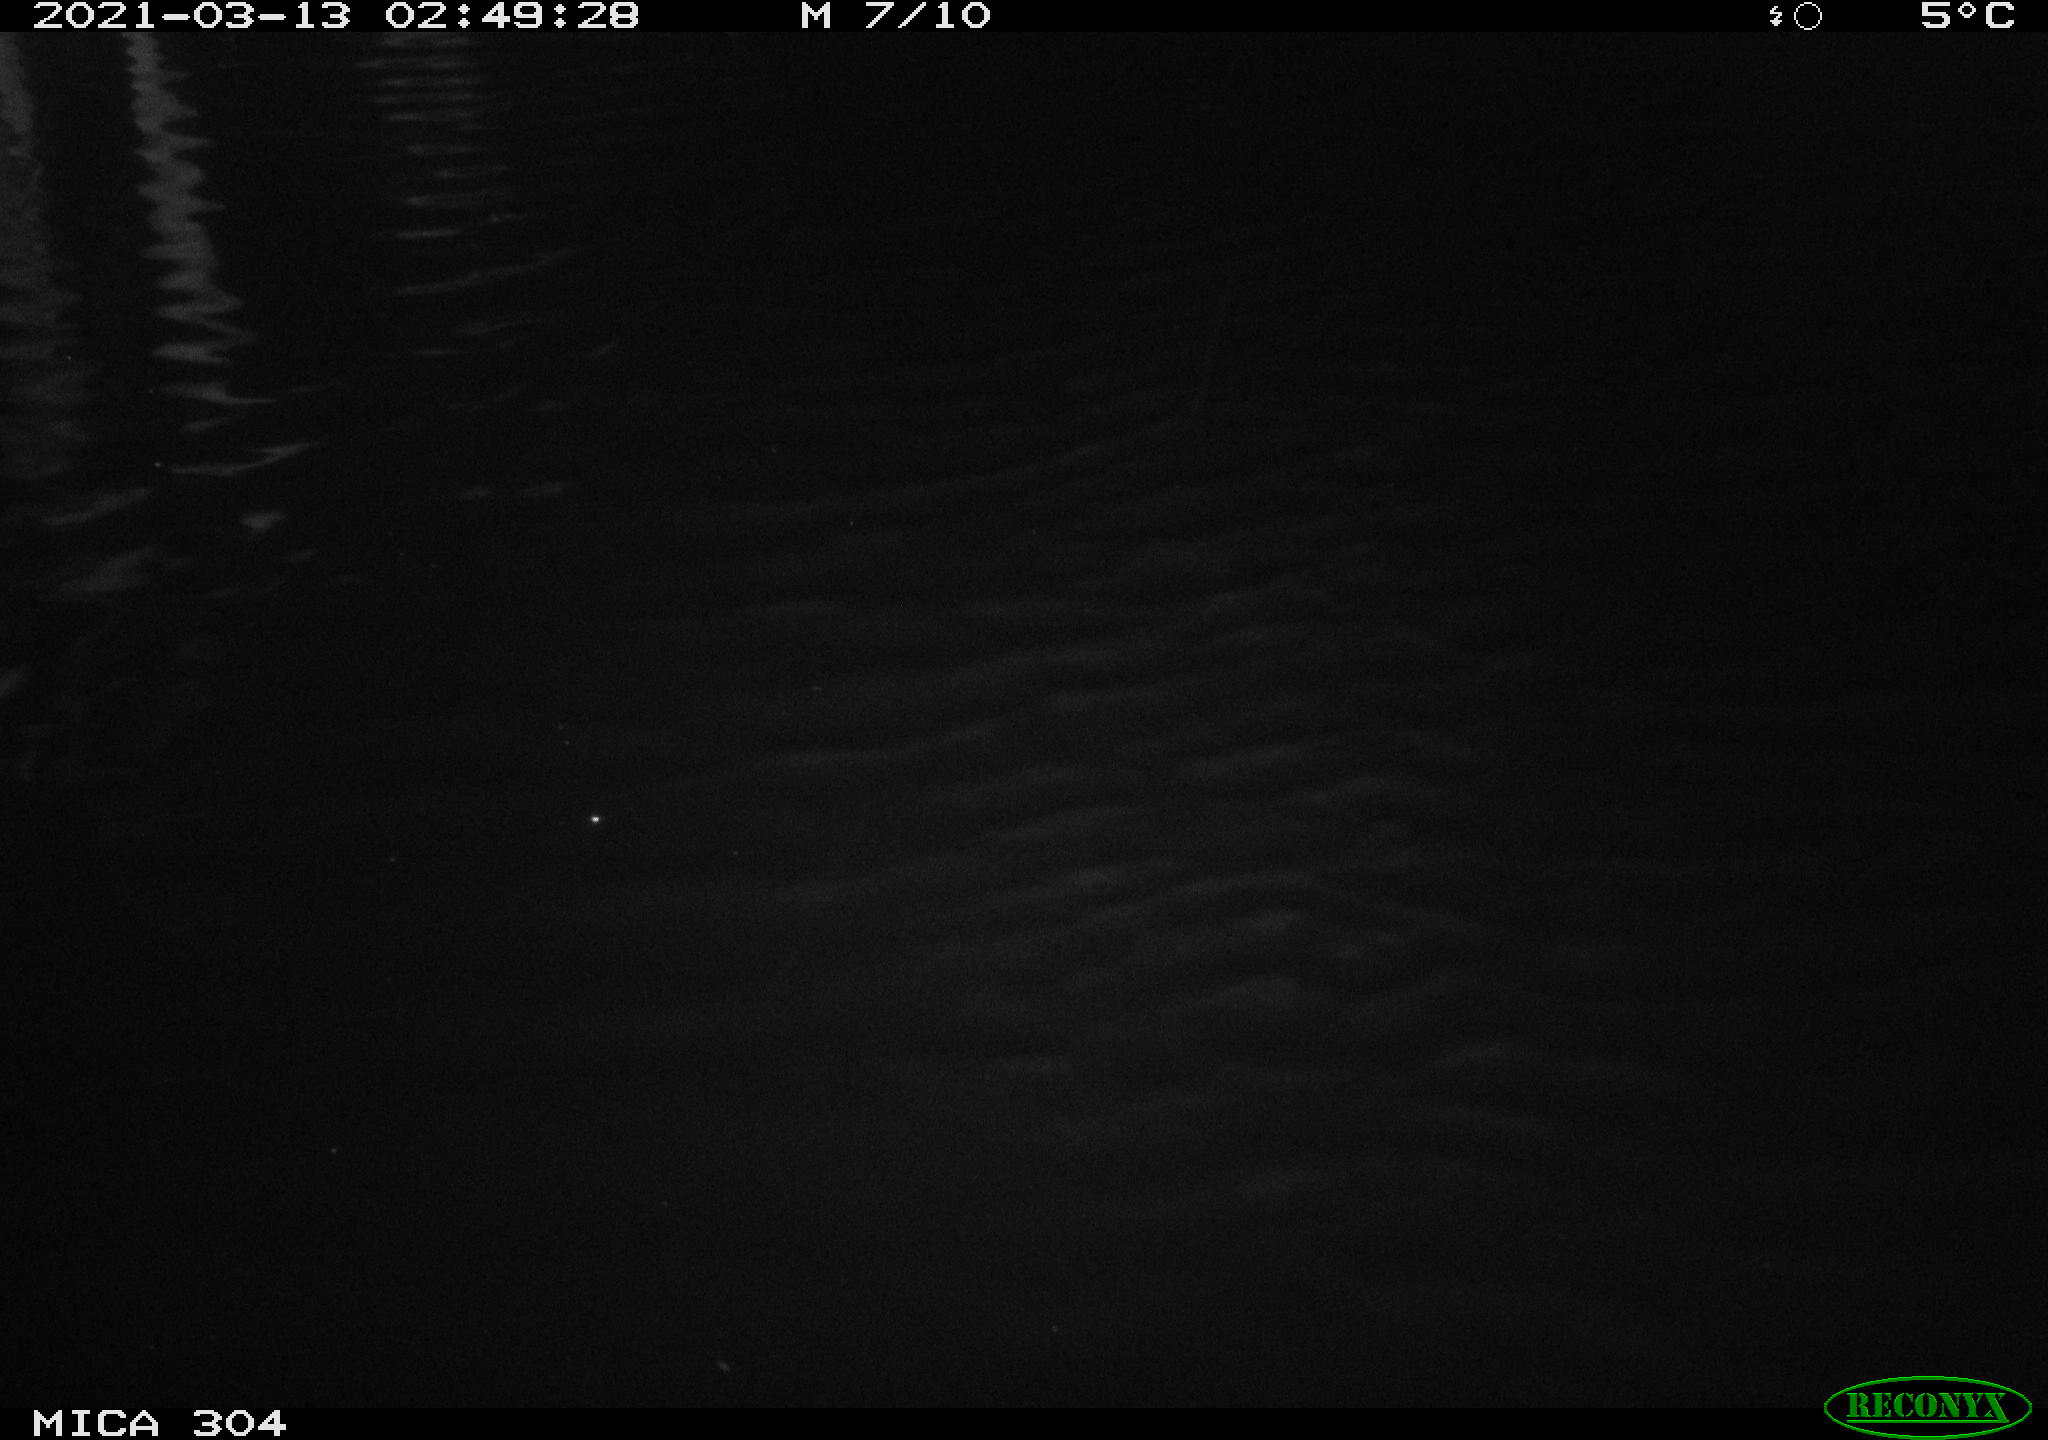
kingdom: Animalia
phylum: Chordata
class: Mammalia
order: Rodentia
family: Cricetidae
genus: Ondatra
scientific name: Ondatra zibethicus
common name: Muskrat
